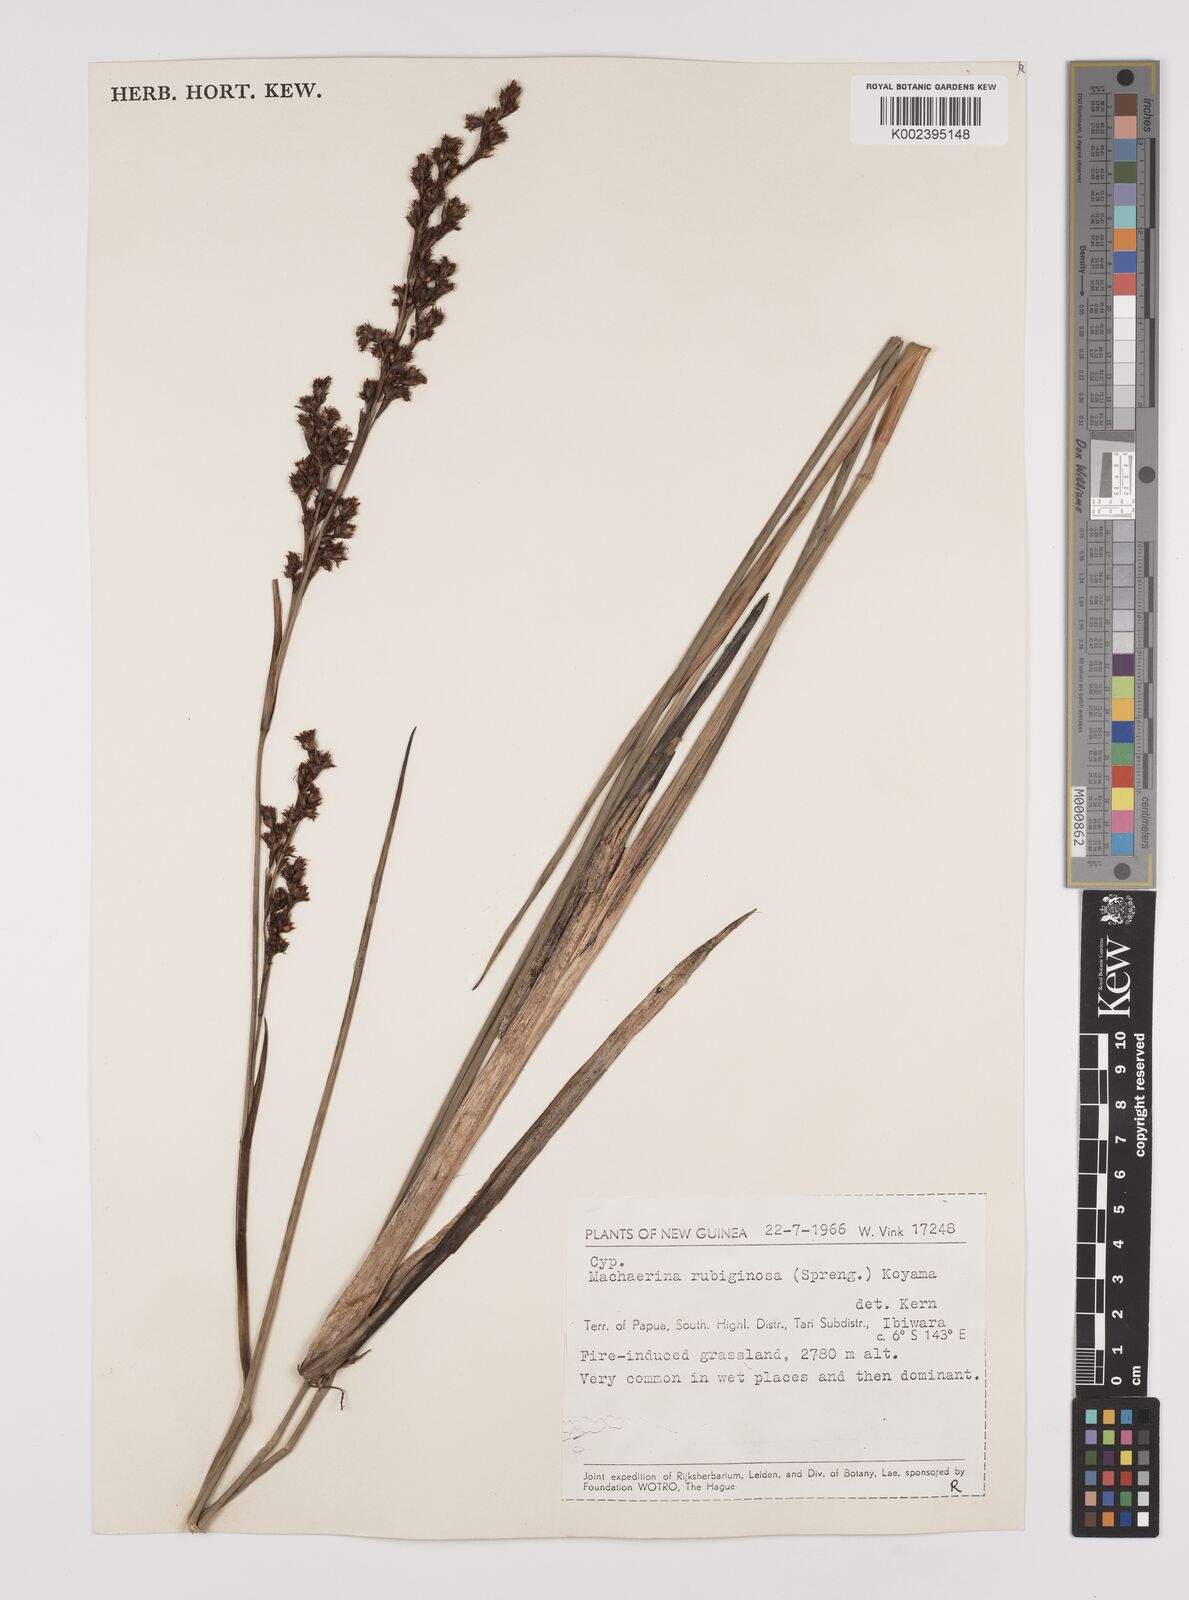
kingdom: Plantae
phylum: Tracheophyta
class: Liliopsida
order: Poales
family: Cyperaceae
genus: Machaerina
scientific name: Machaerina rubiginosa
